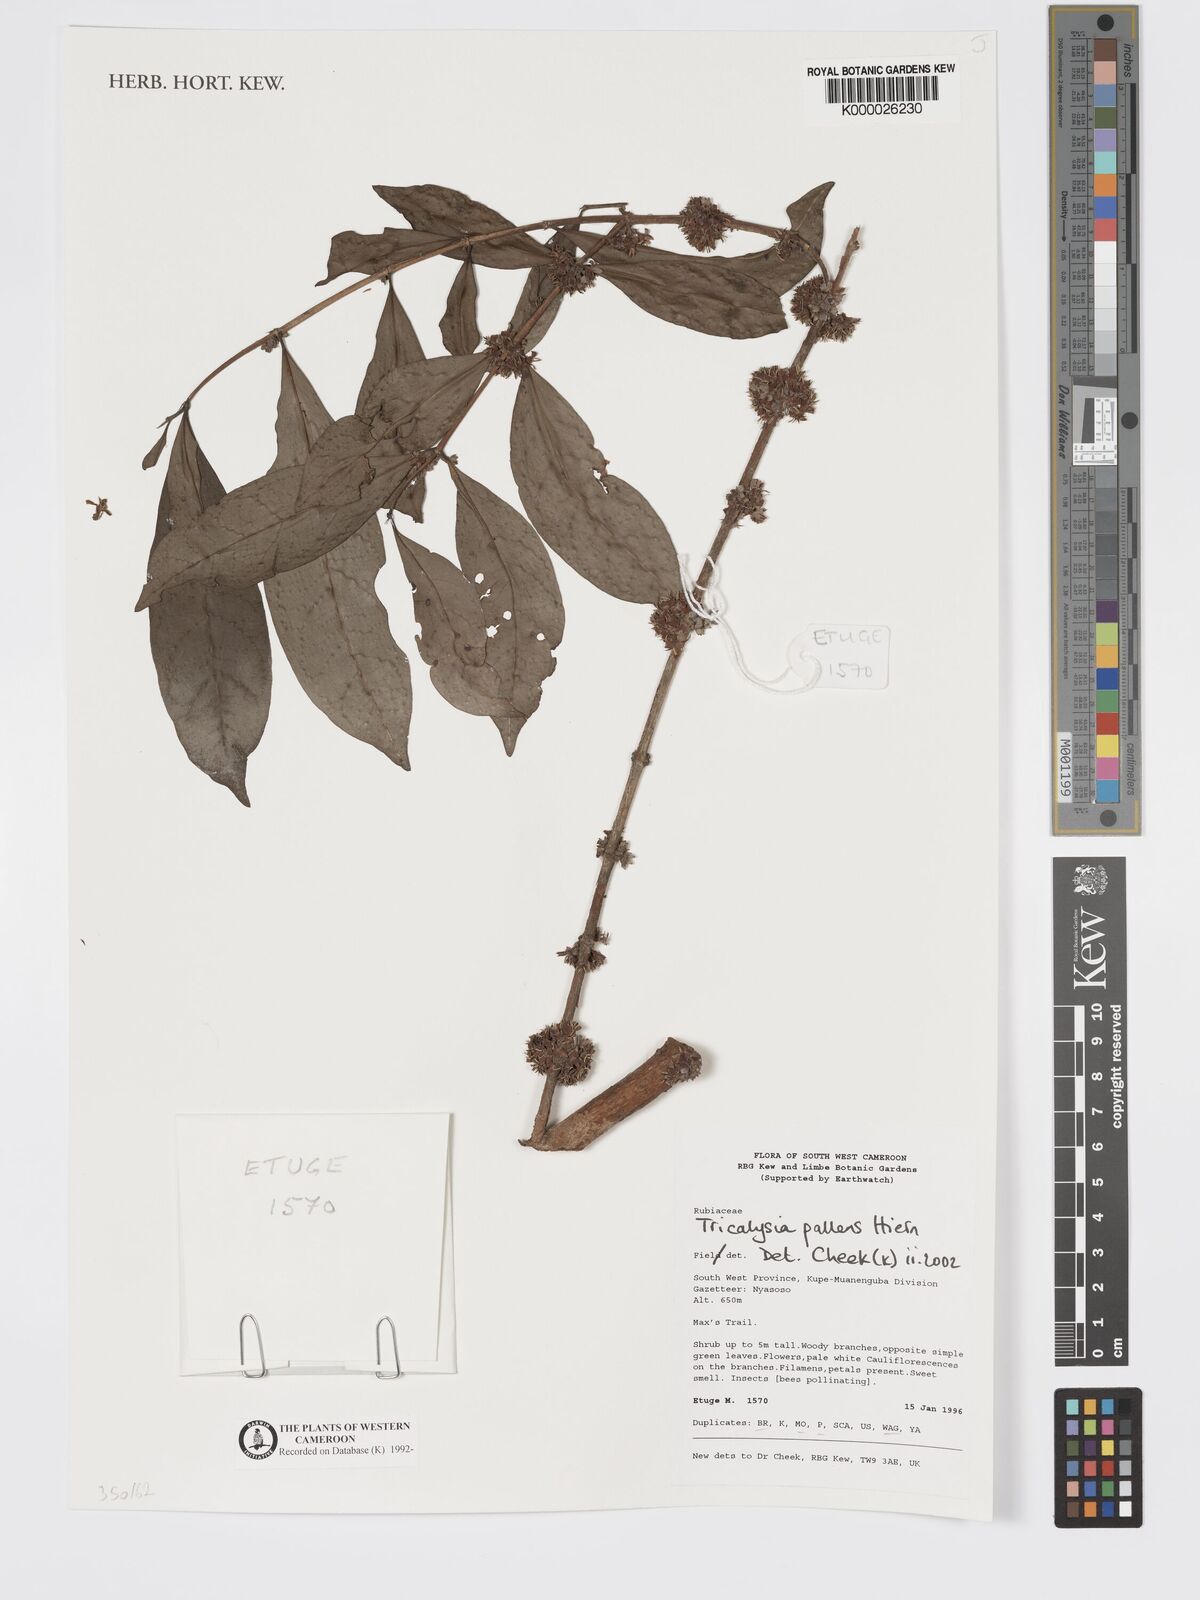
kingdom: Plantae
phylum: Tracheophyta
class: Magnoliopsida
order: Gentianales
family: Rubiaceae
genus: Tricalysia
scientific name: Tricalysia pallens
